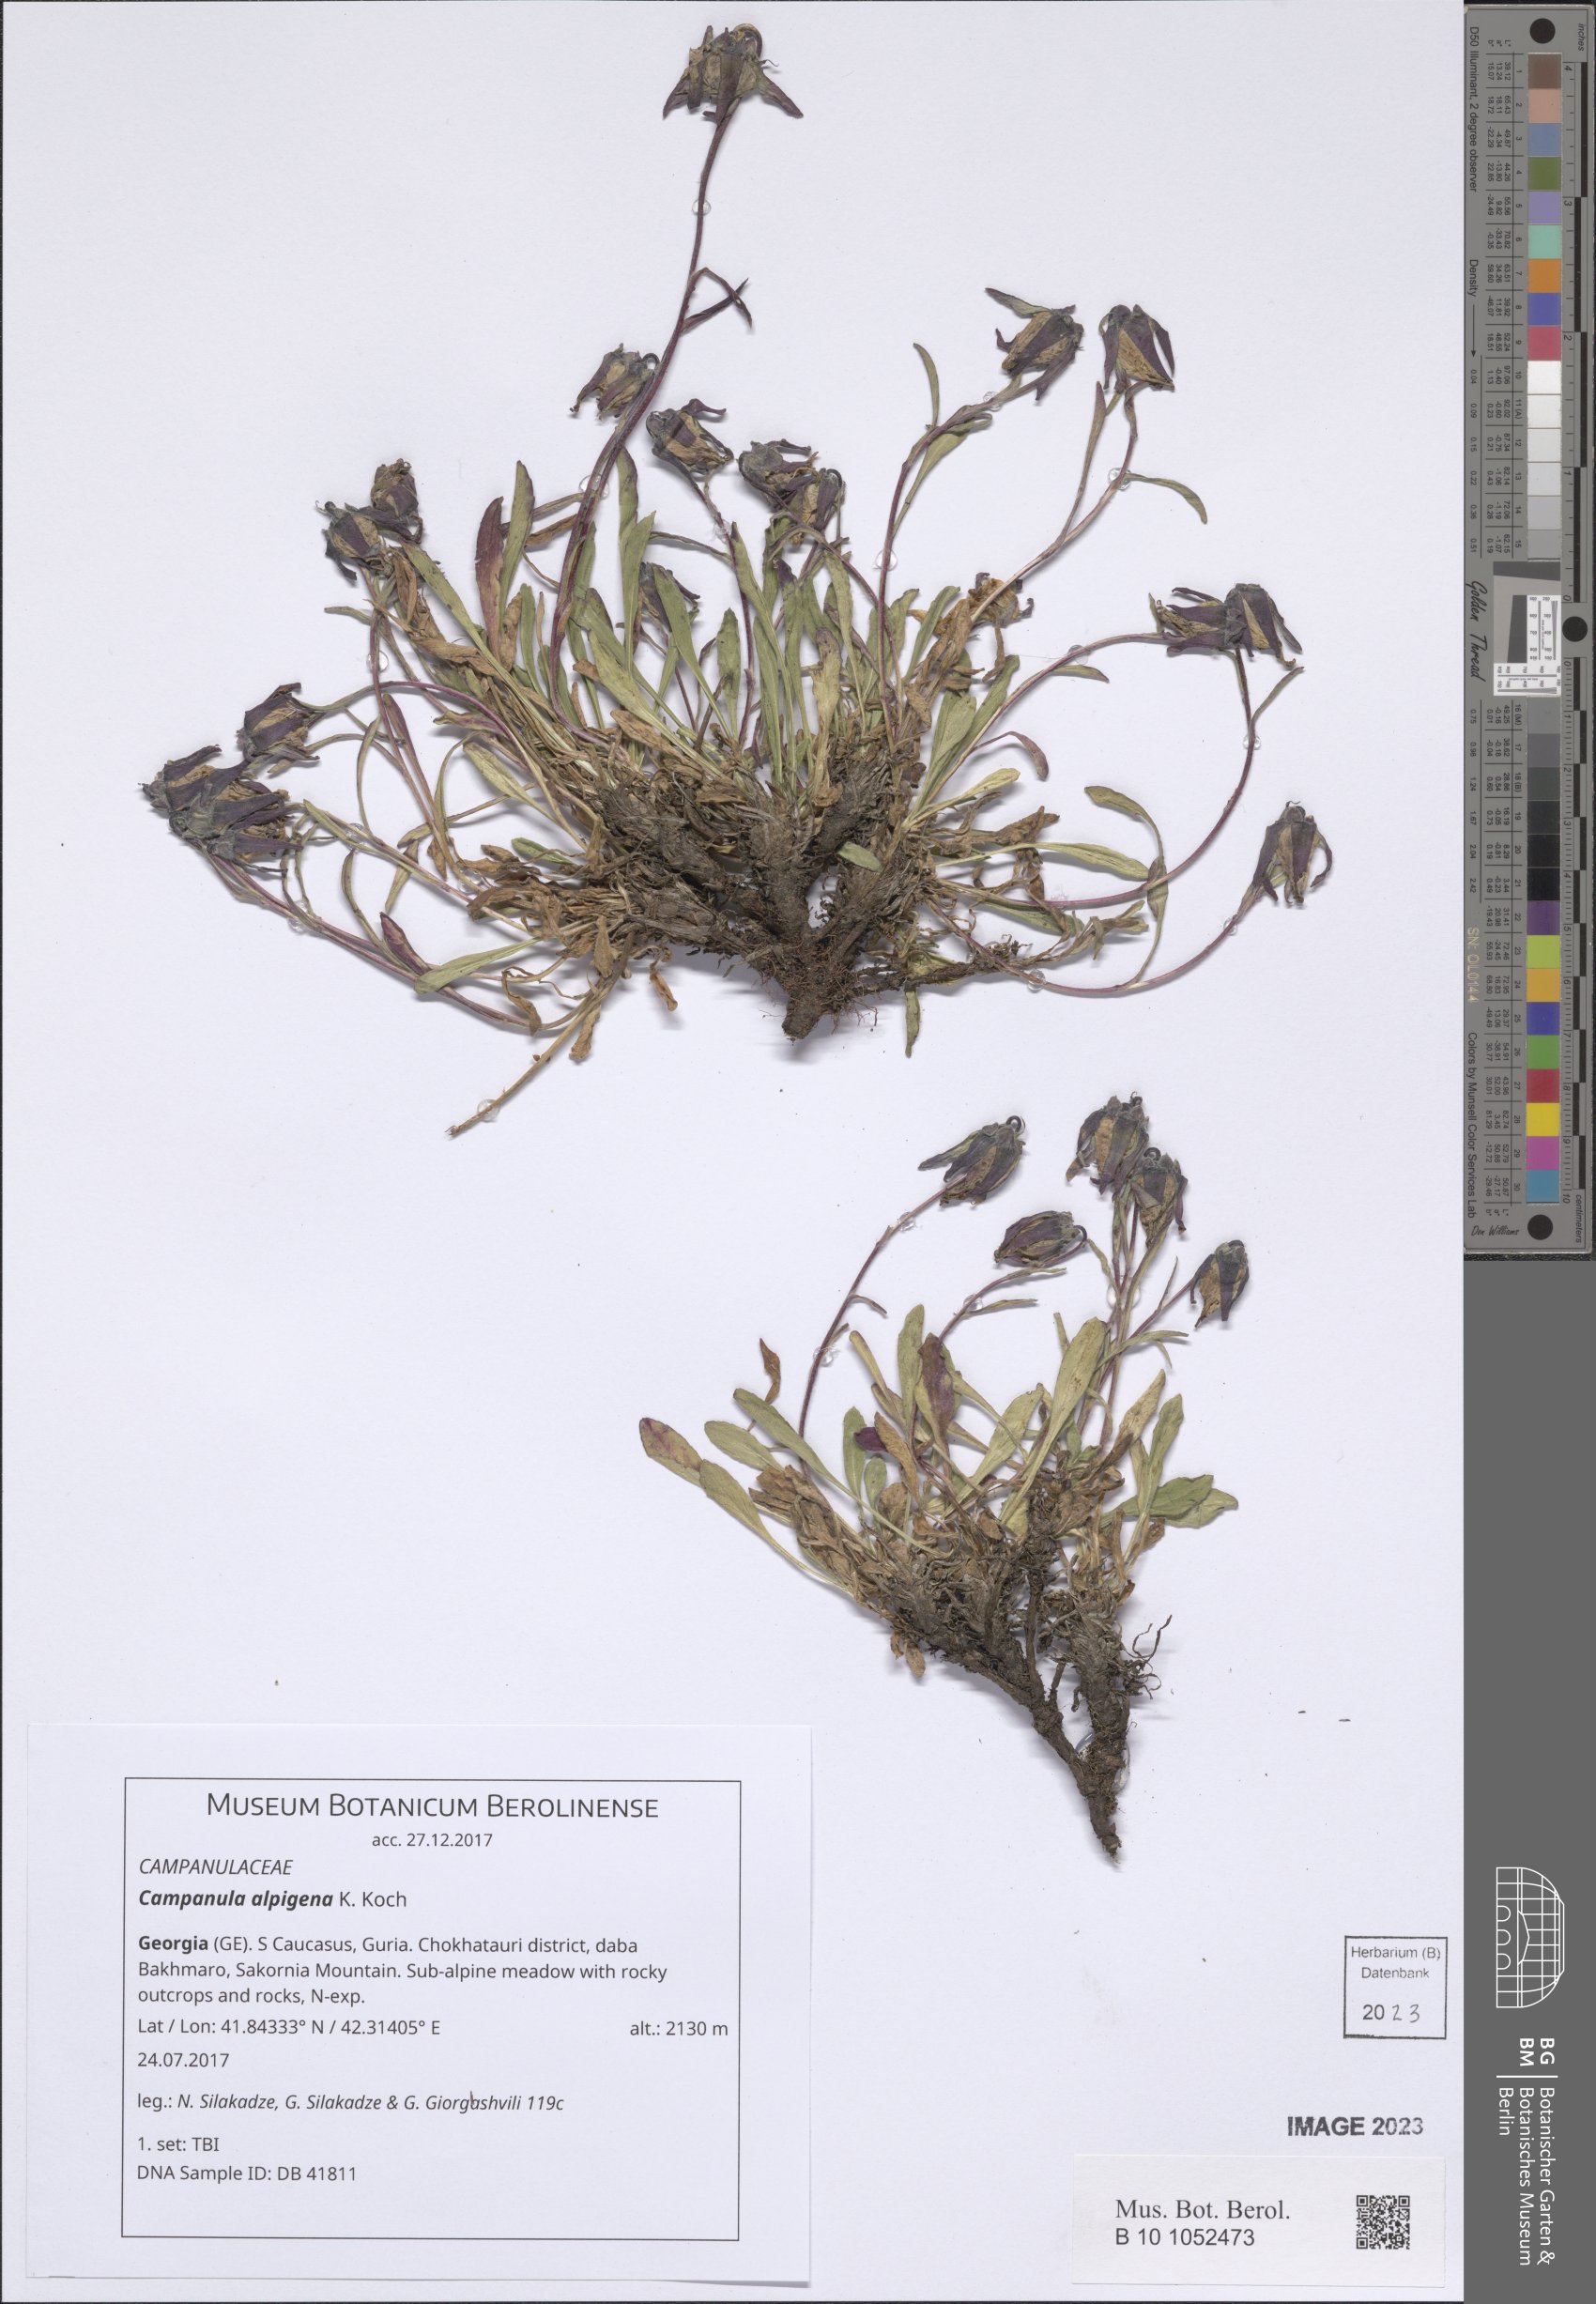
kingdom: Plantae
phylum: Tracheophyta
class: Magnoliopsida
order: Asterales
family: Campanulaceae
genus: Campanula
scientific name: Campanula saxifraga
